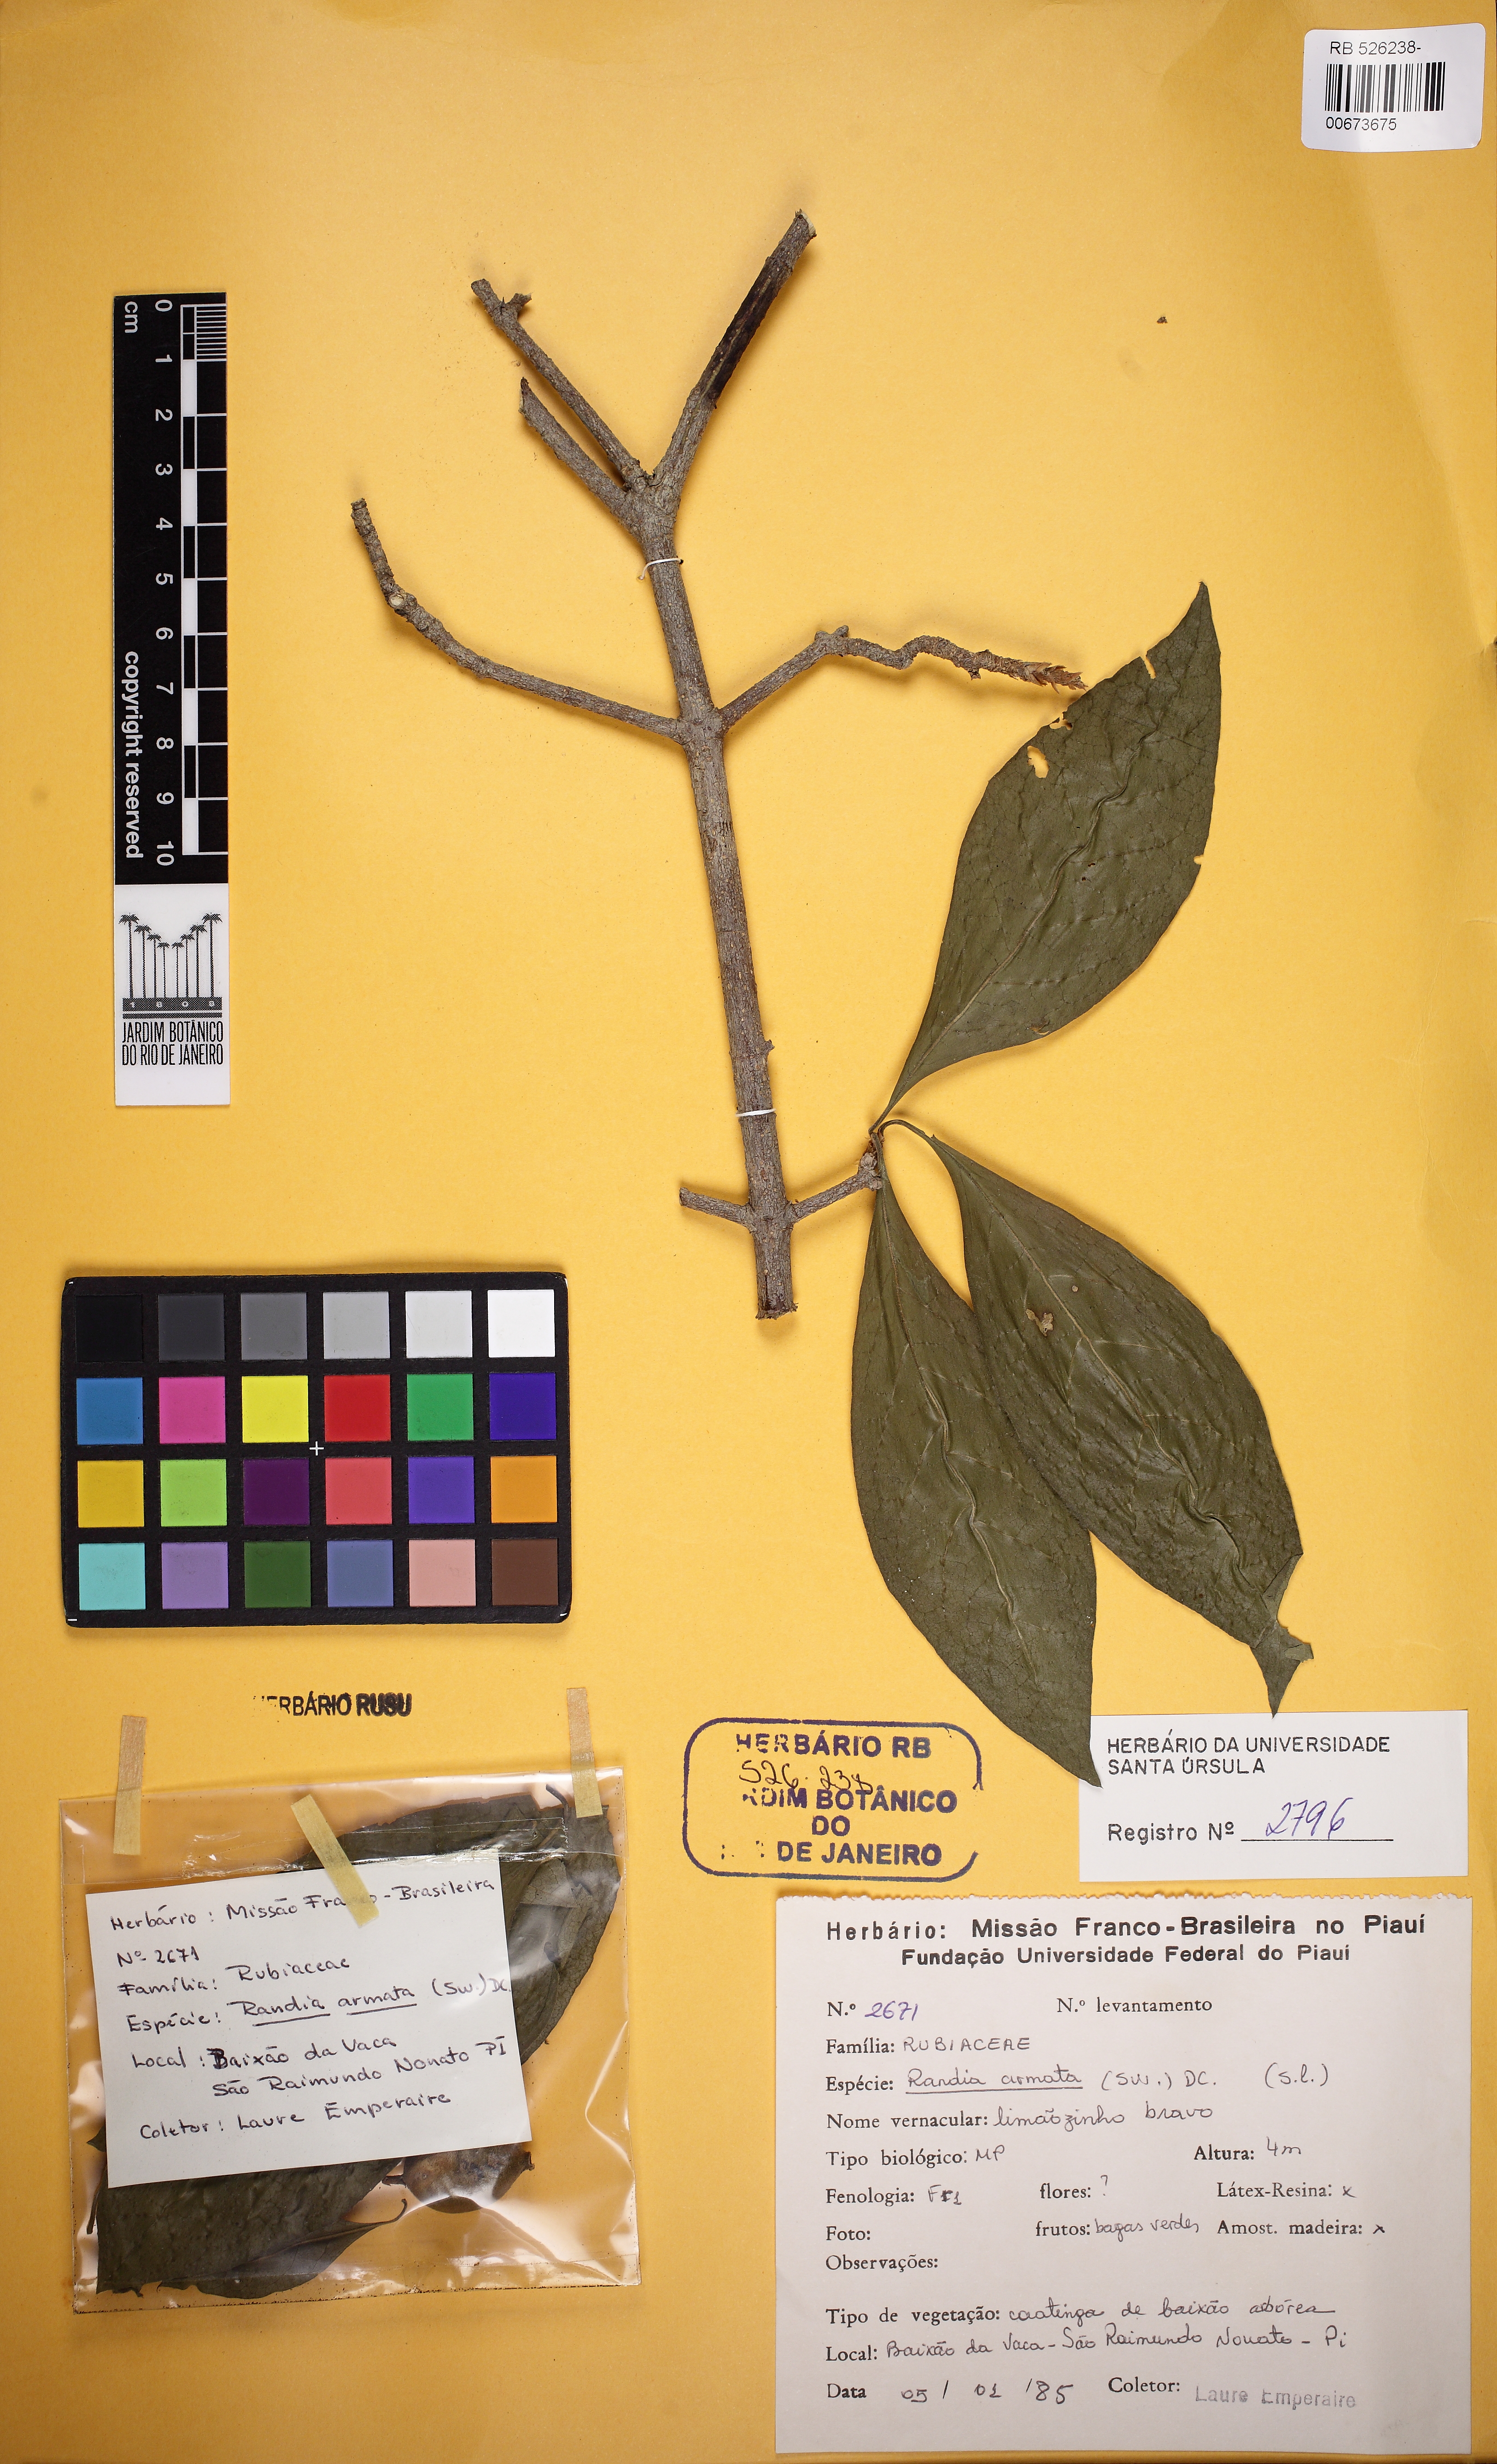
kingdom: Plantae
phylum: Tracheophyta
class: Magnoliopsida
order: Gentianales
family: Rubiaceae
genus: Randia
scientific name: Randia armata
